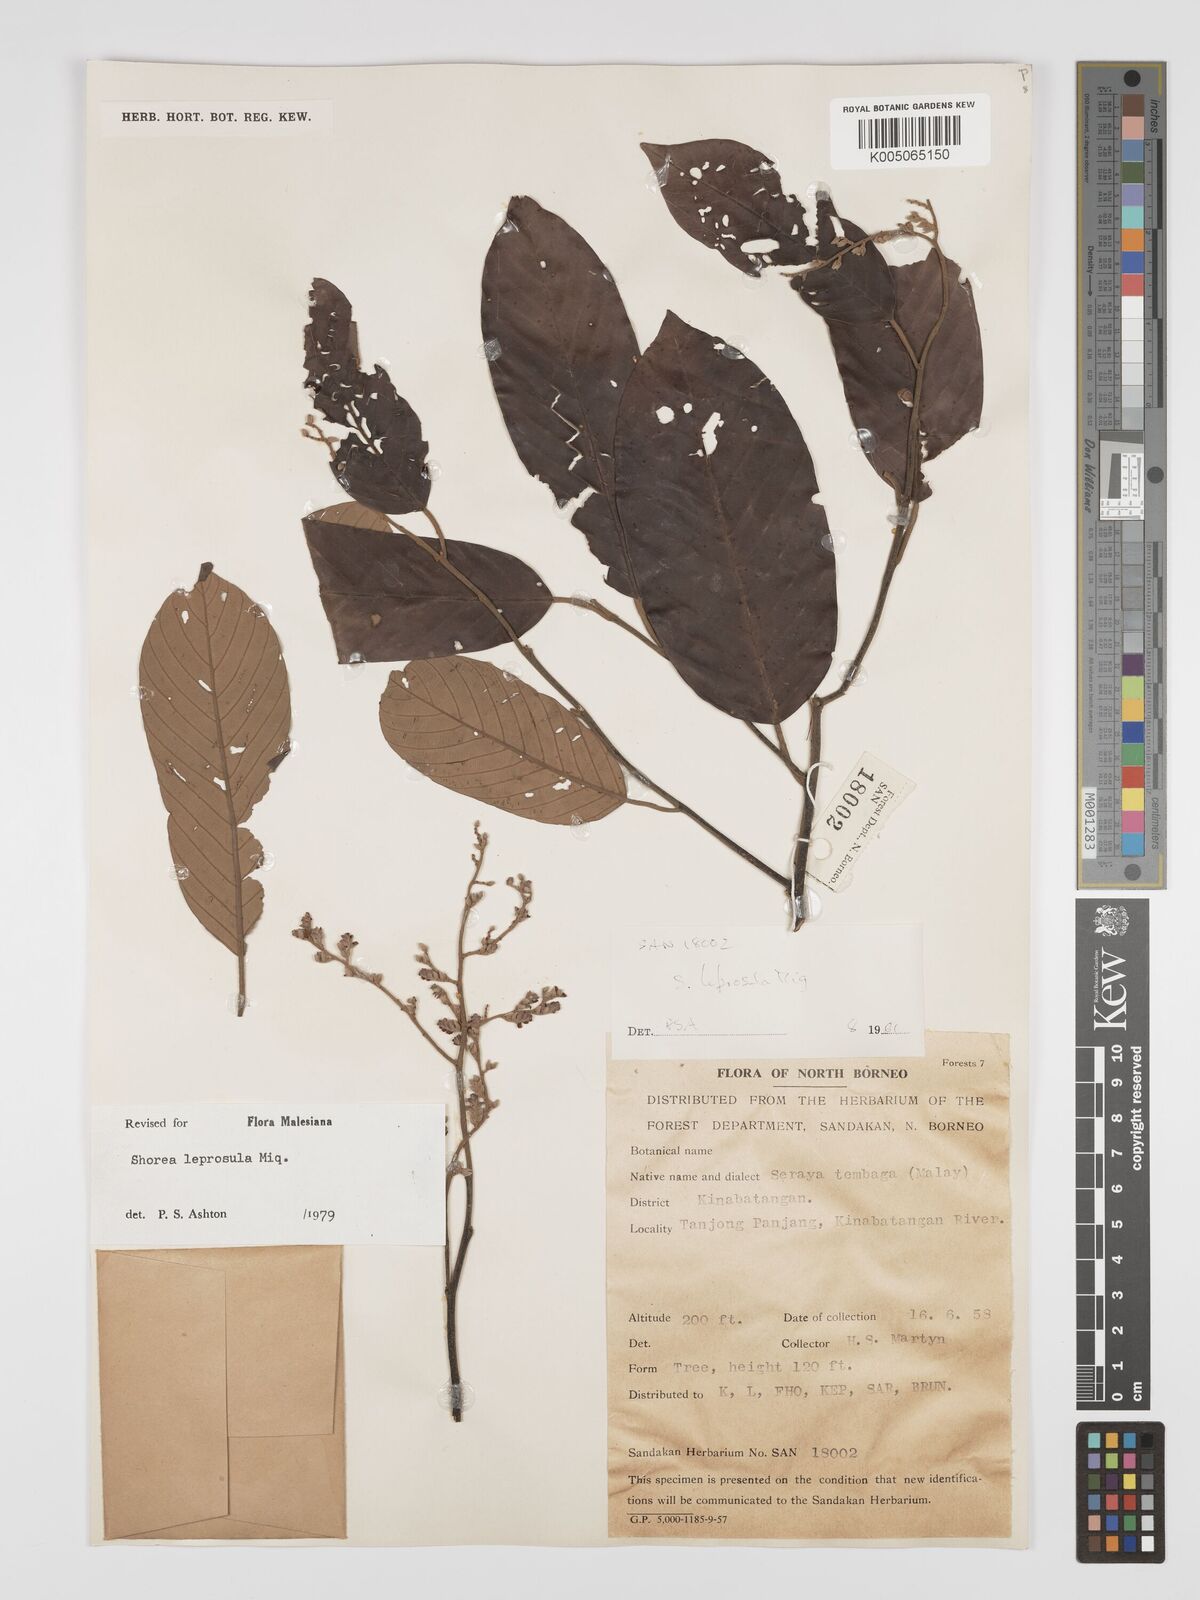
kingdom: Plantae
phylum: Tracheophyta
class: Magnoliopsida
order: Malvales
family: Dipterocarpaceae
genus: Shorea
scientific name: Shorea leprosula
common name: Light red meranti
